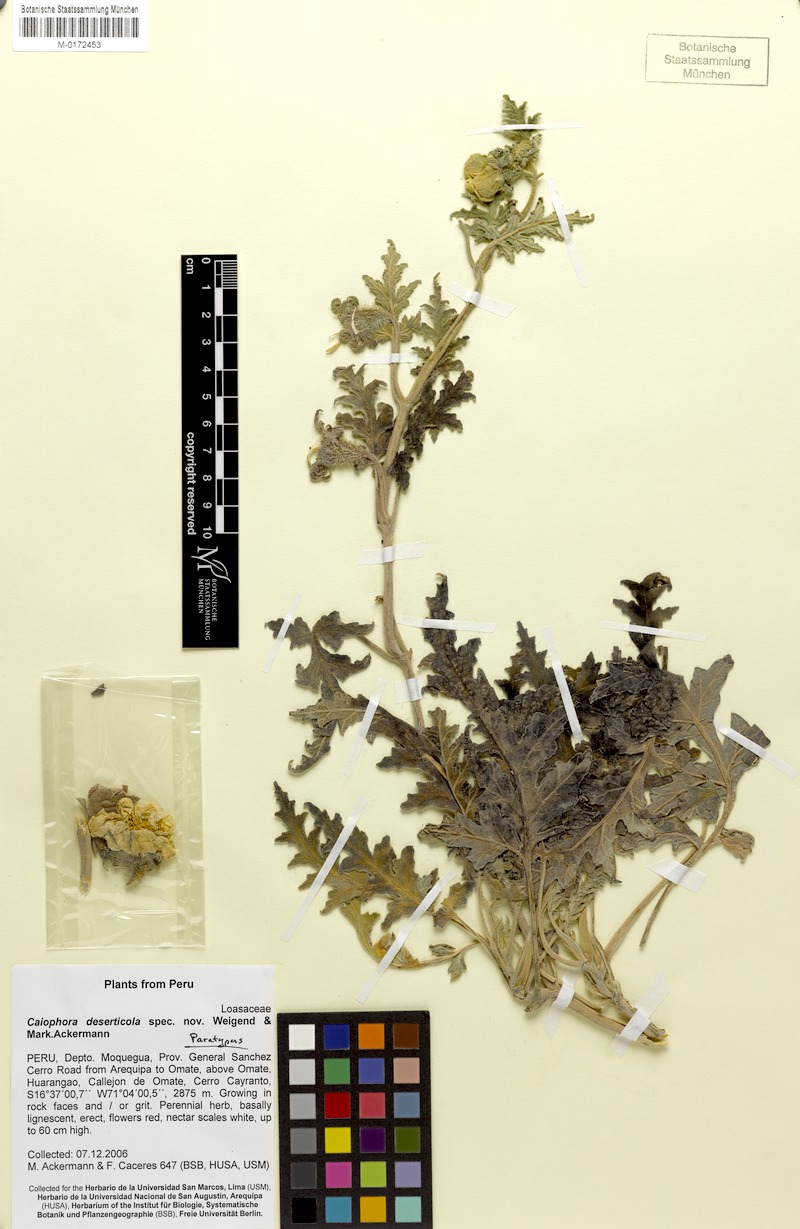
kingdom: Plantae
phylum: Tracheophyta
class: Magnoliopsida
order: Cornales
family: Loasaceae
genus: Caiophora
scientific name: Caiophora deserticola
